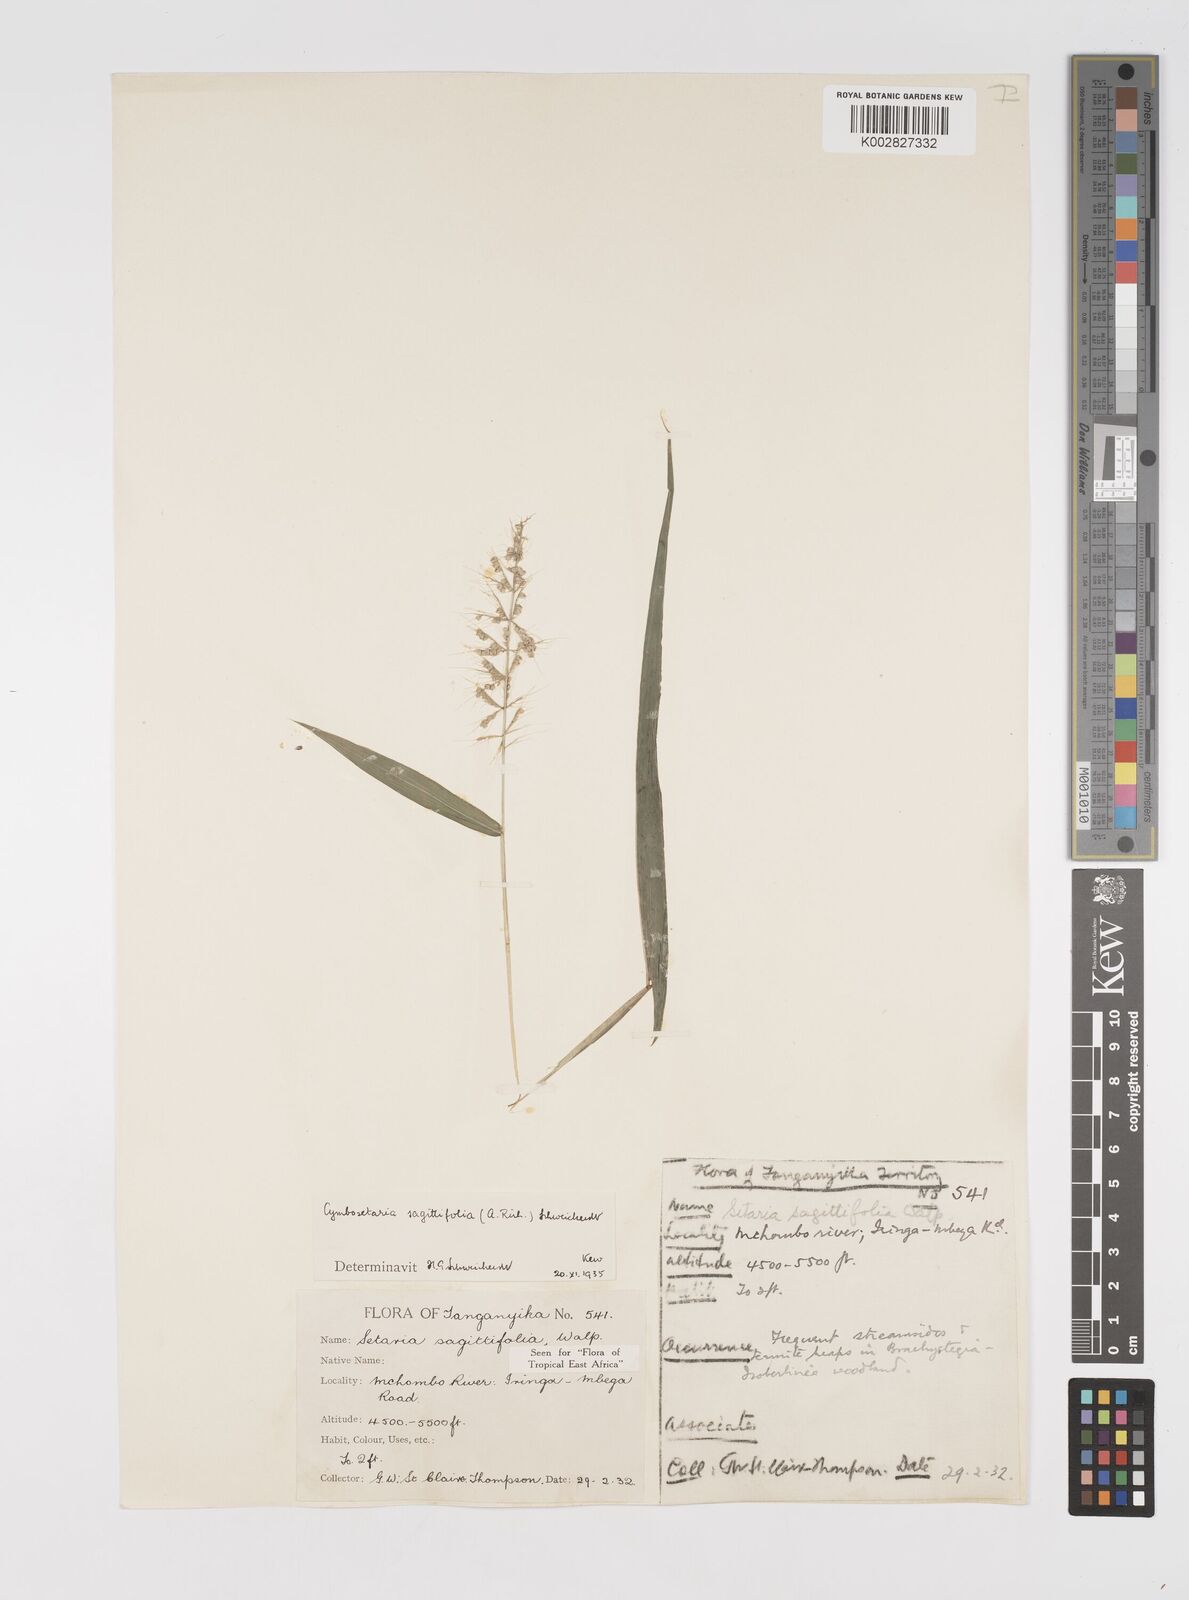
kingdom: Plantae
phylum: Tracheophyta
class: Liliopsida
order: Poales
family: Poaceae
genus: Setaria
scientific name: Setaria sagittifolia
